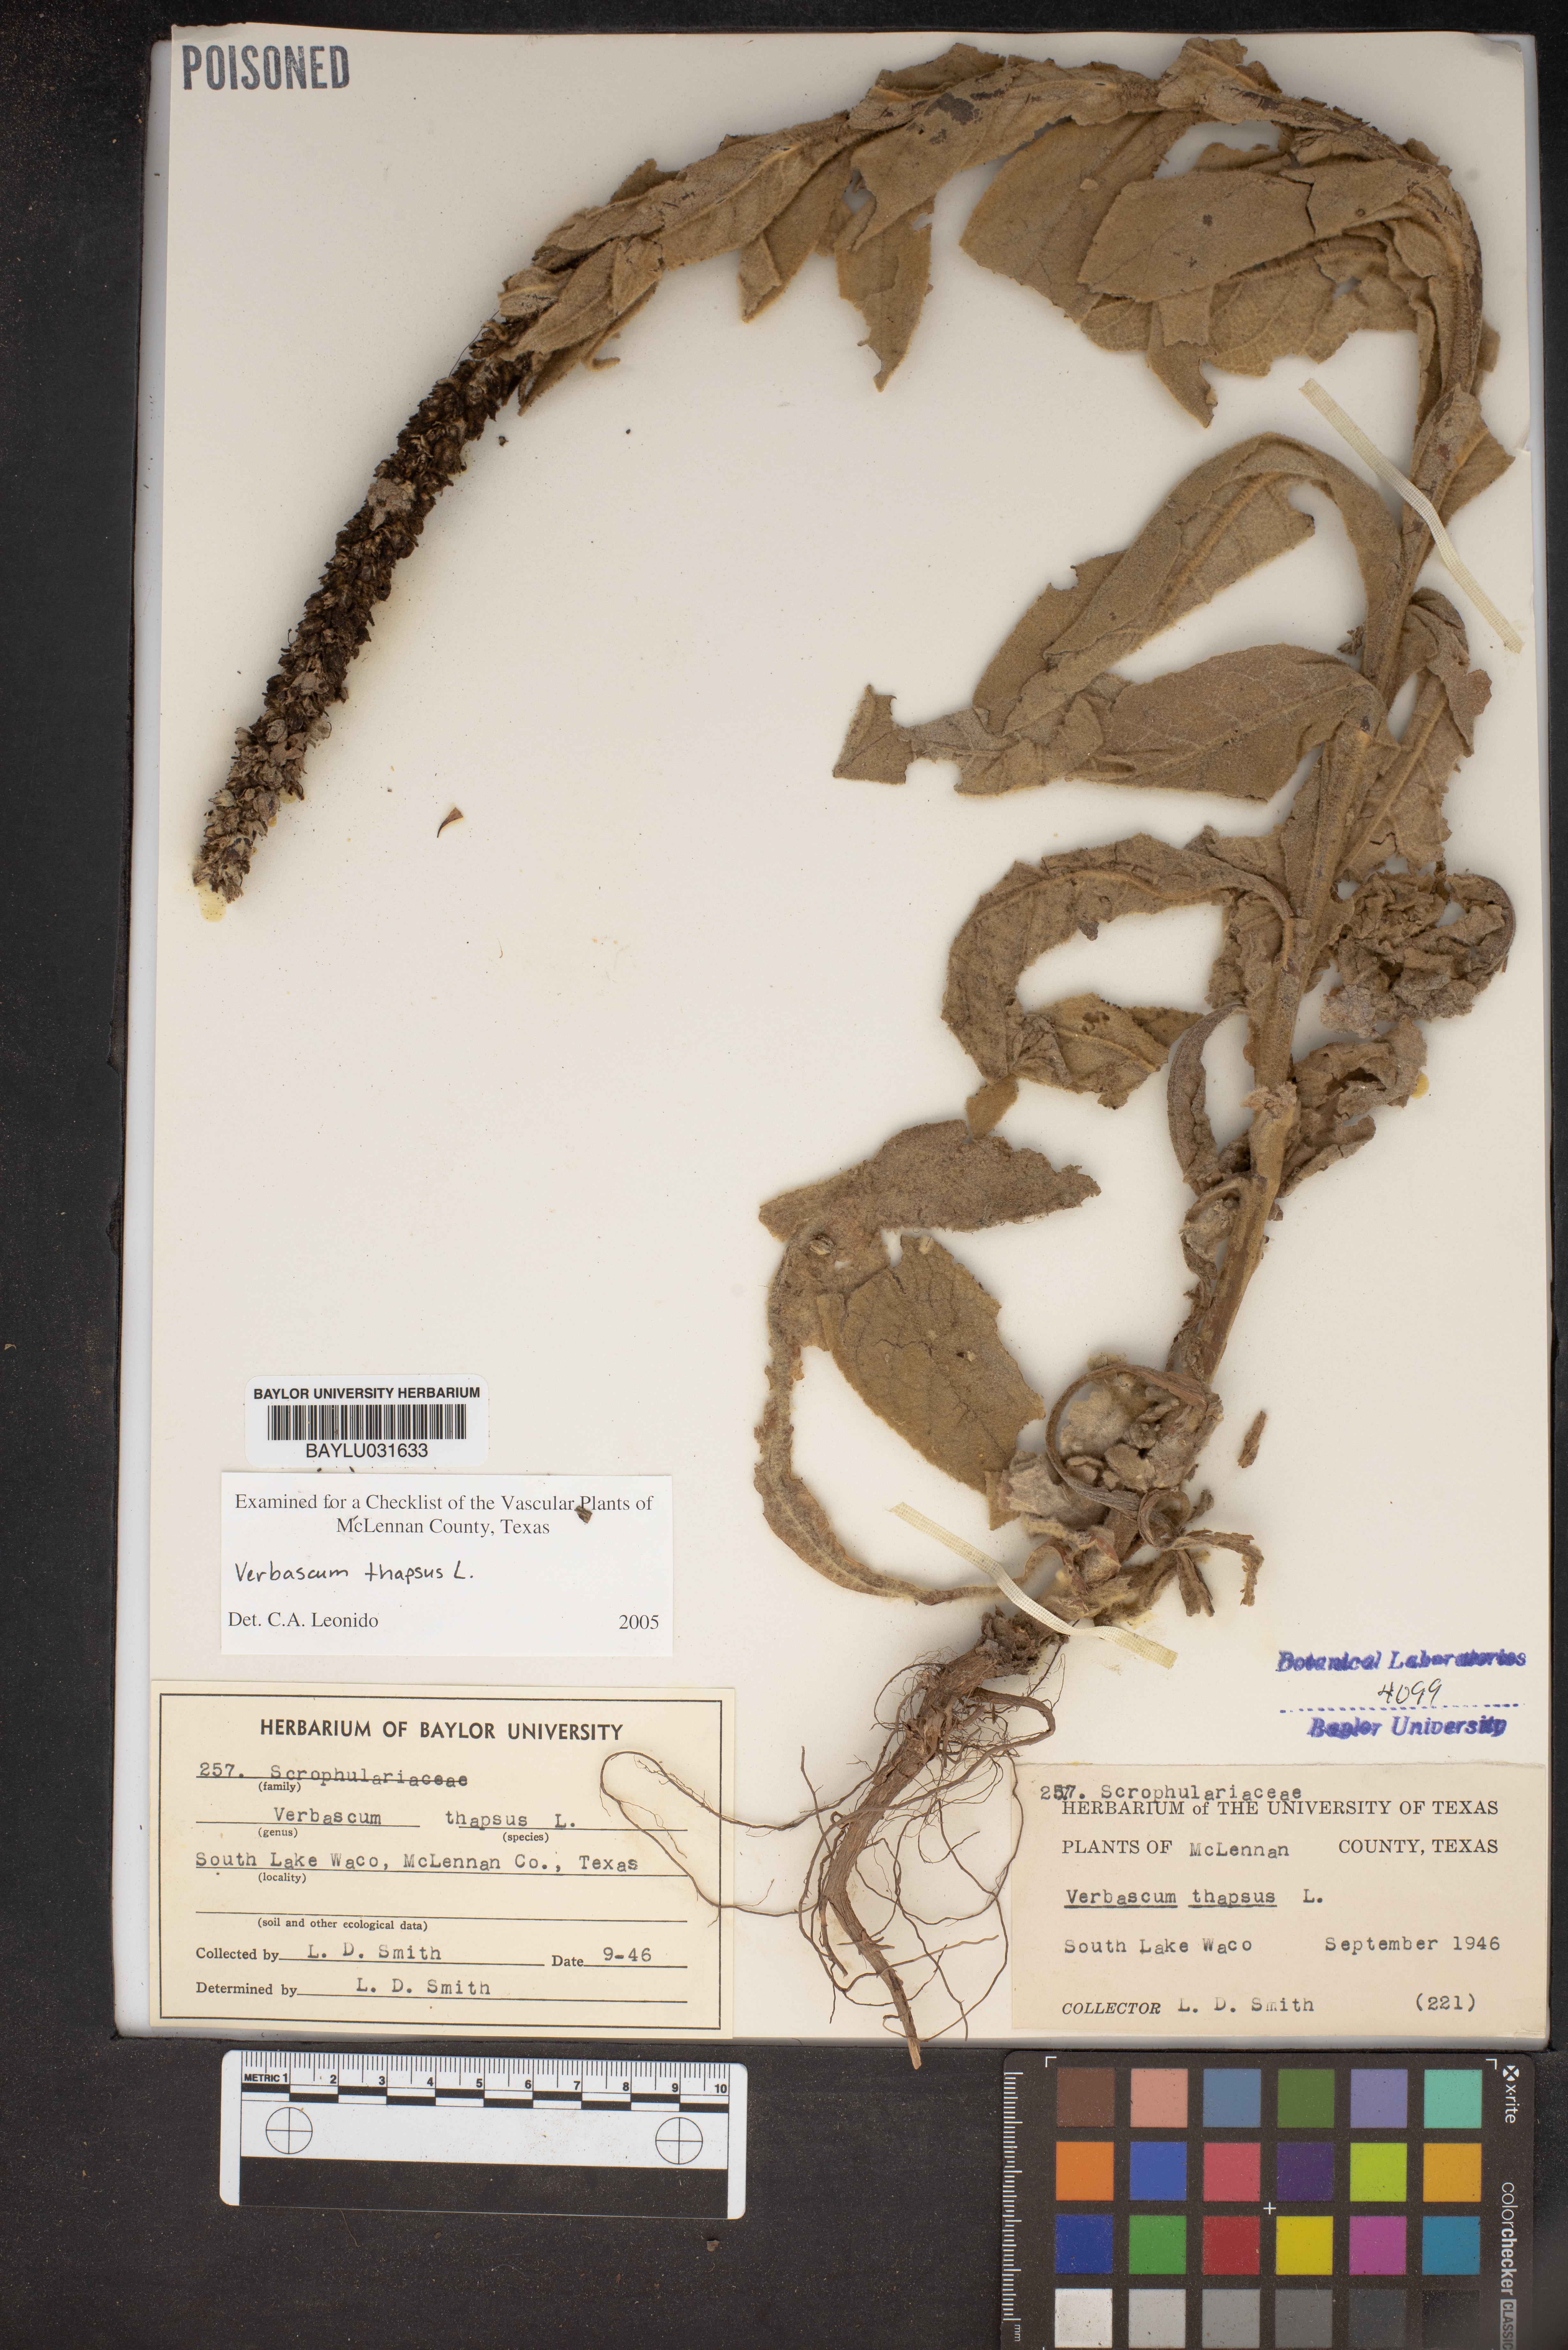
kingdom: Plantae
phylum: Tracheophyta
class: Magnoliopsida
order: Lamiales
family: Scrophulariaceae
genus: Verbascum
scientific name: Verbascum thapsus
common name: Common mullein
